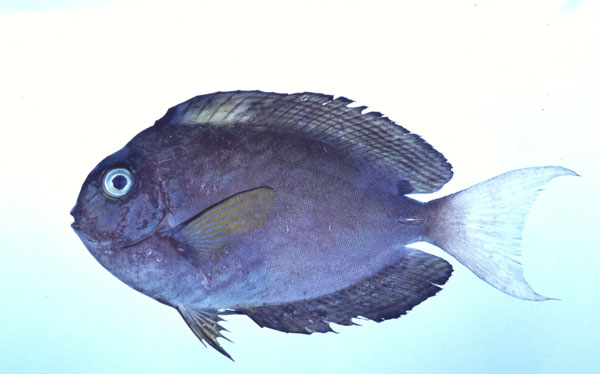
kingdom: Animalia
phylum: Chordata
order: Perciformes
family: Acanthuridae
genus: Acanthurus
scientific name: Acanthurus thompsoni
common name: Chocolate surgeonfish
